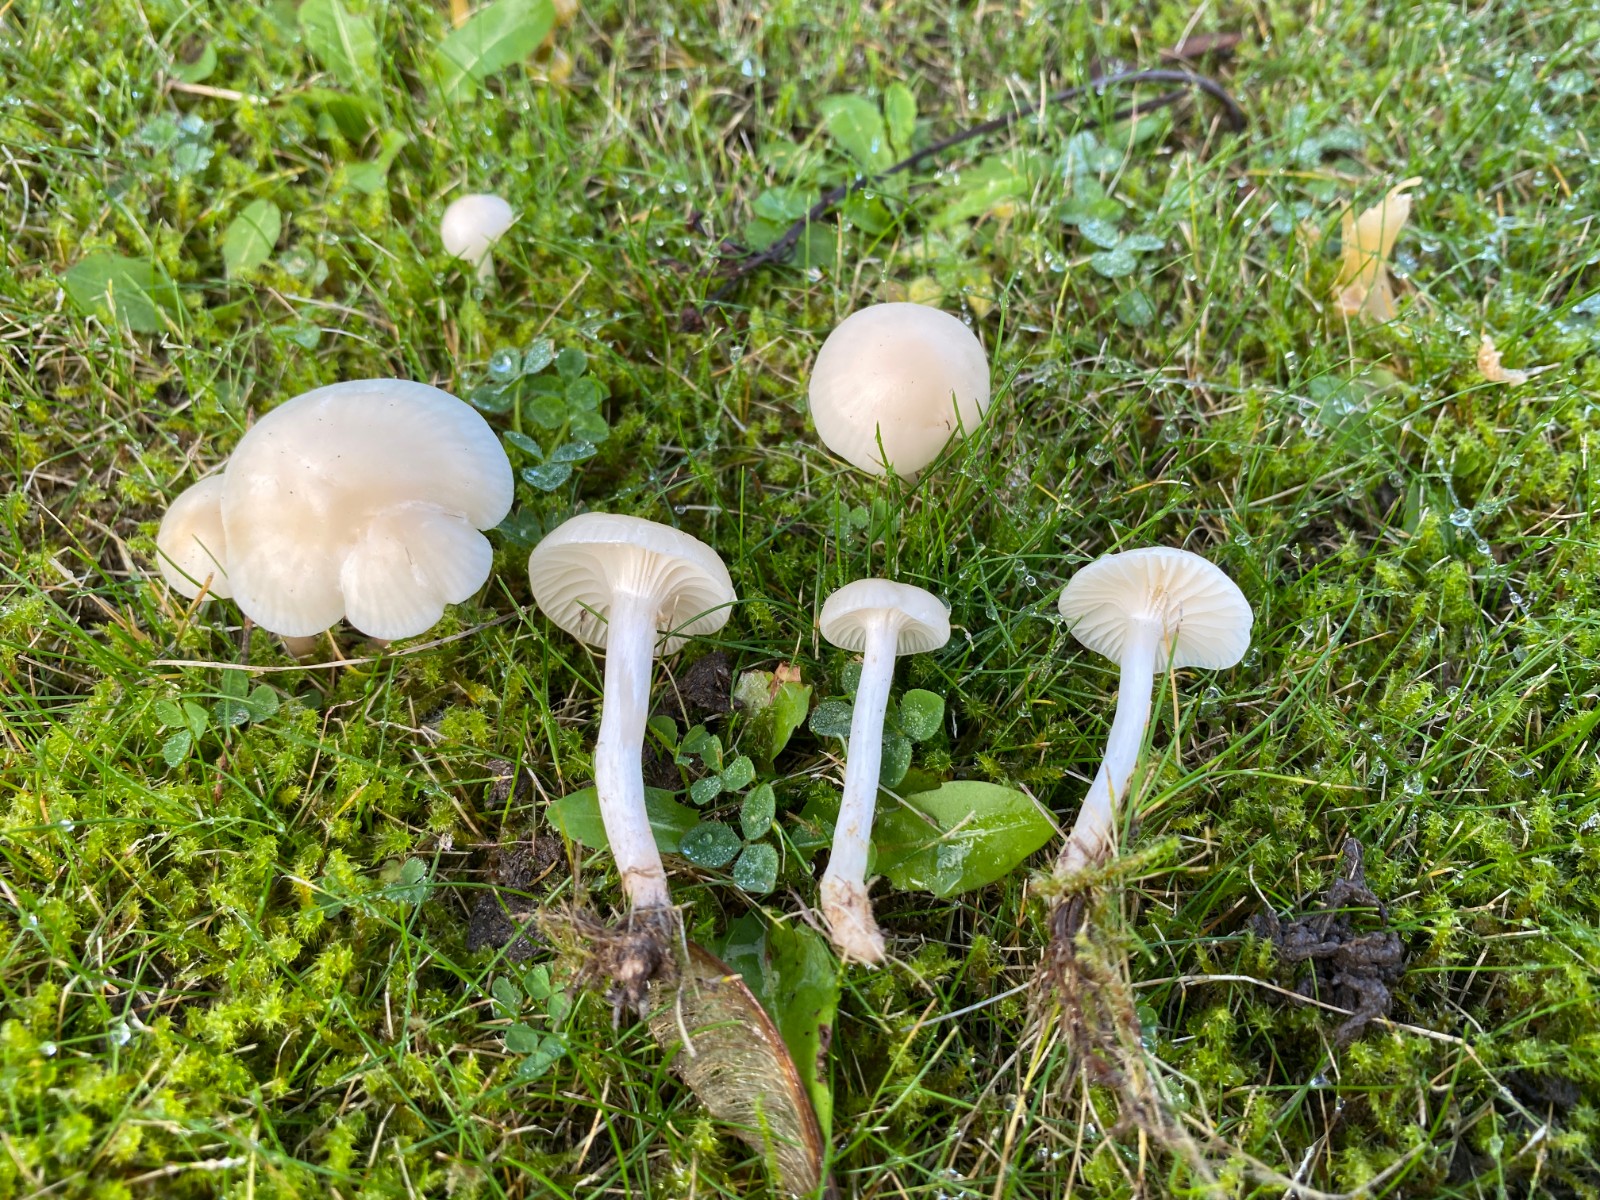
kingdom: Fungi
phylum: Basidiomycota
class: Agaricomycetes
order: Agaricales
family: Hygrophoraceae
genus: Cuphophyllus
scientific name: Cuphophyllus virgineus
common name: snehvid vokshat
